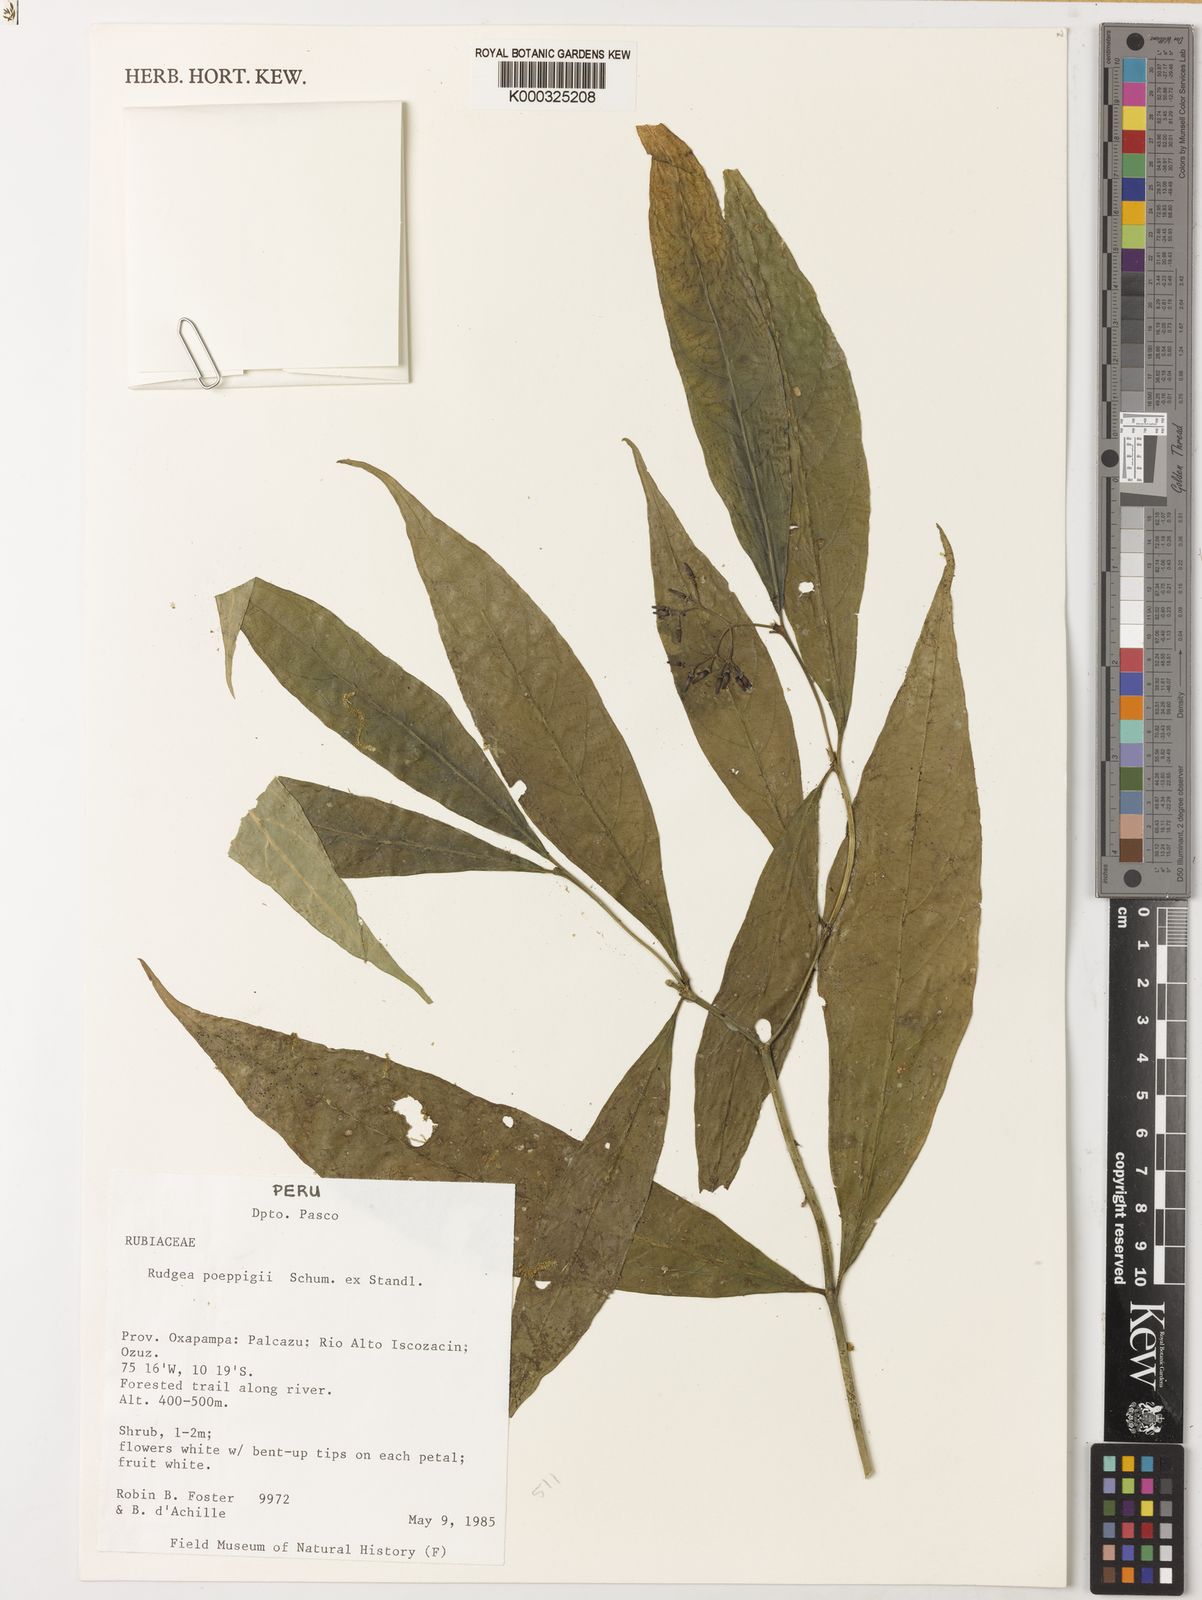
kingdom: Plantae
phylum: Tracheophyta
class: Magnoliopsida
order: Gentianales
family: Rubiaceae
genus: Rudgea
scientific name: Rudgea poeppigii
